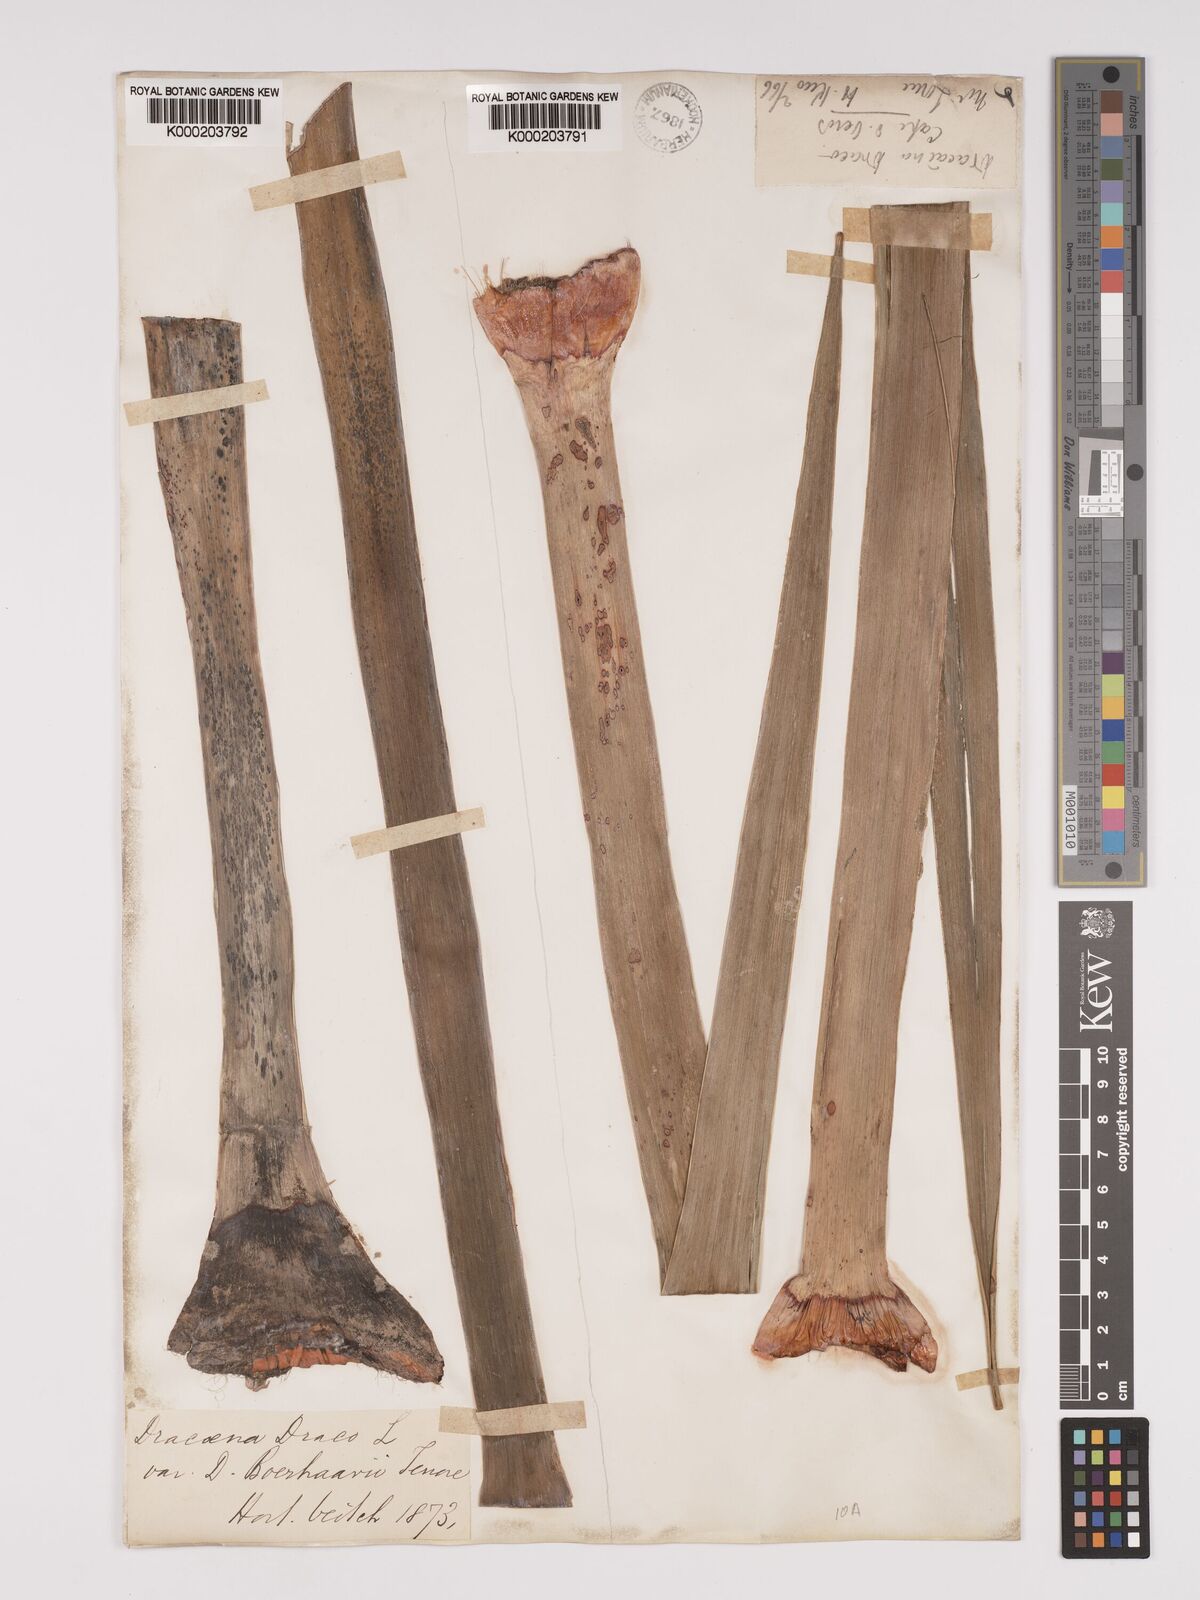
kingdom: Plantae
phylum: Tracheophyta
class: Liliopsida
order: Asparagales
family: Asparagaceae
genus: Dracaena
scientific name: Dracaena draco
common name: Canary island dragon tree
